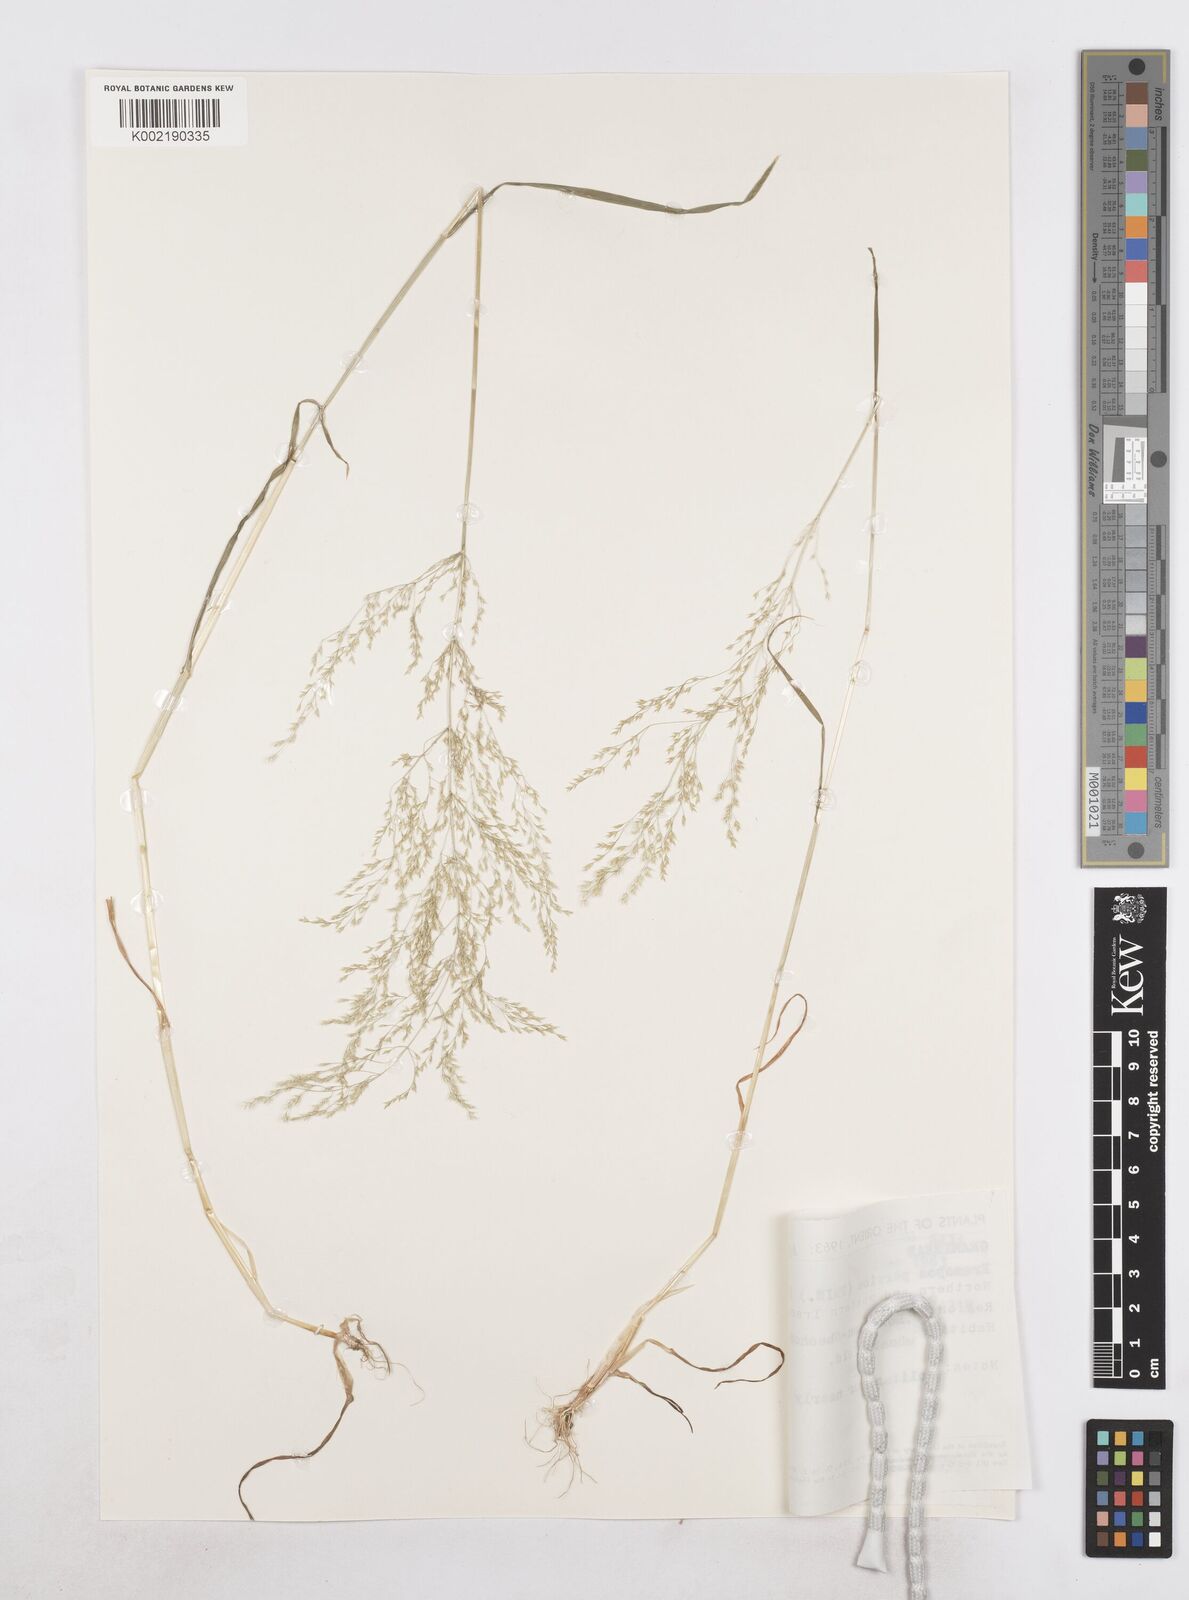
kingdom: Plantae
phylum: Tracheophyta
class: Liliopsida
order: Poales
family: Poaceae
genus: Poa
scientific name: Poa persica
